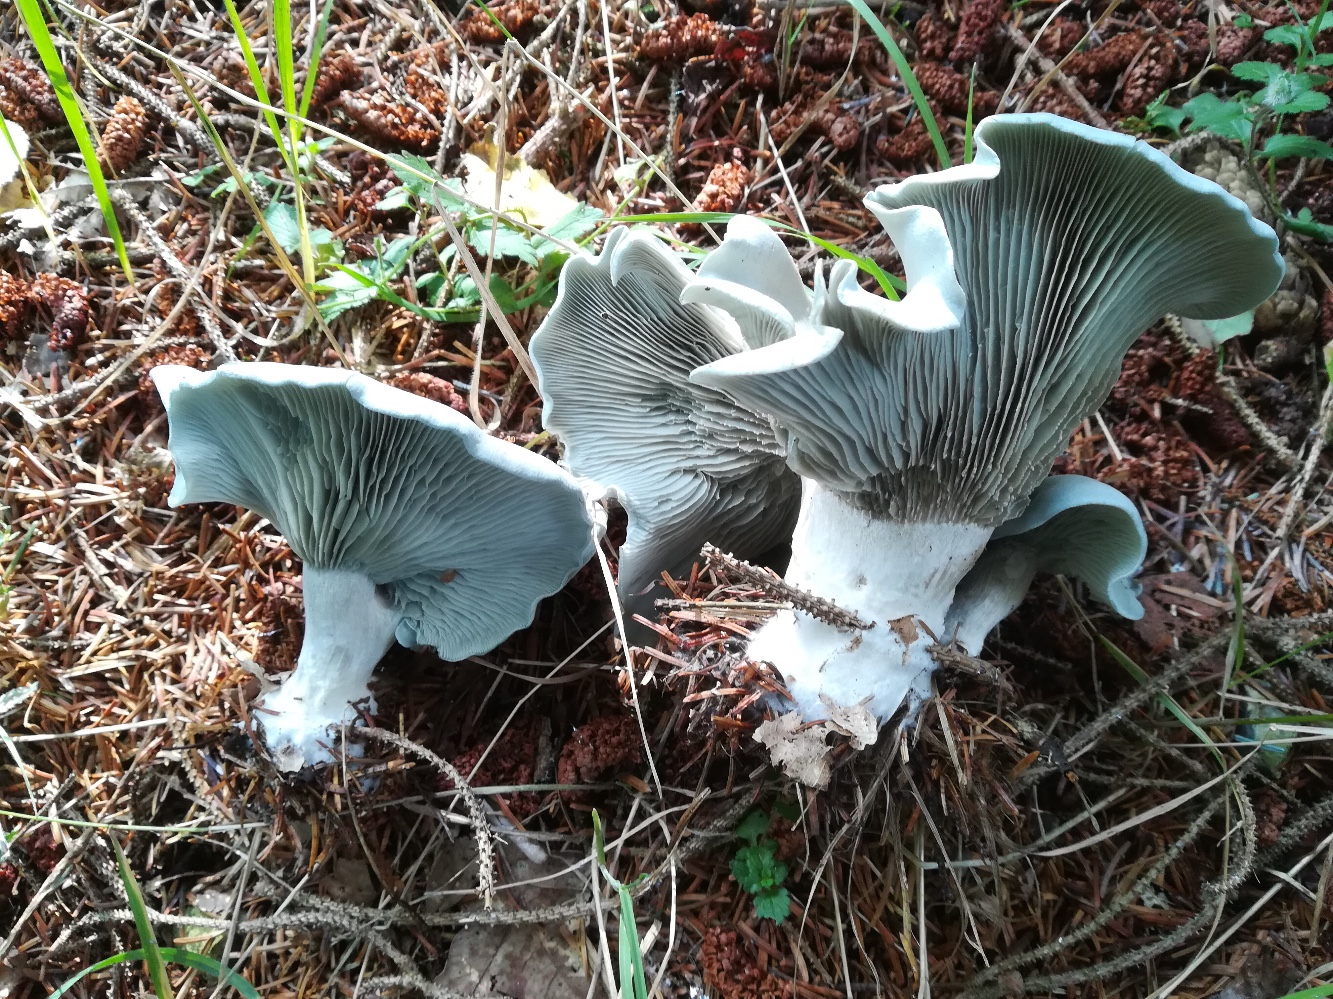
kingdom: Fungi
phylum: Basidiomycota
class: Agaricomycetes
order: Agaricales
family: Tricholomataceae
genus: Clitocybe
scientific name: Clitocybe odora
